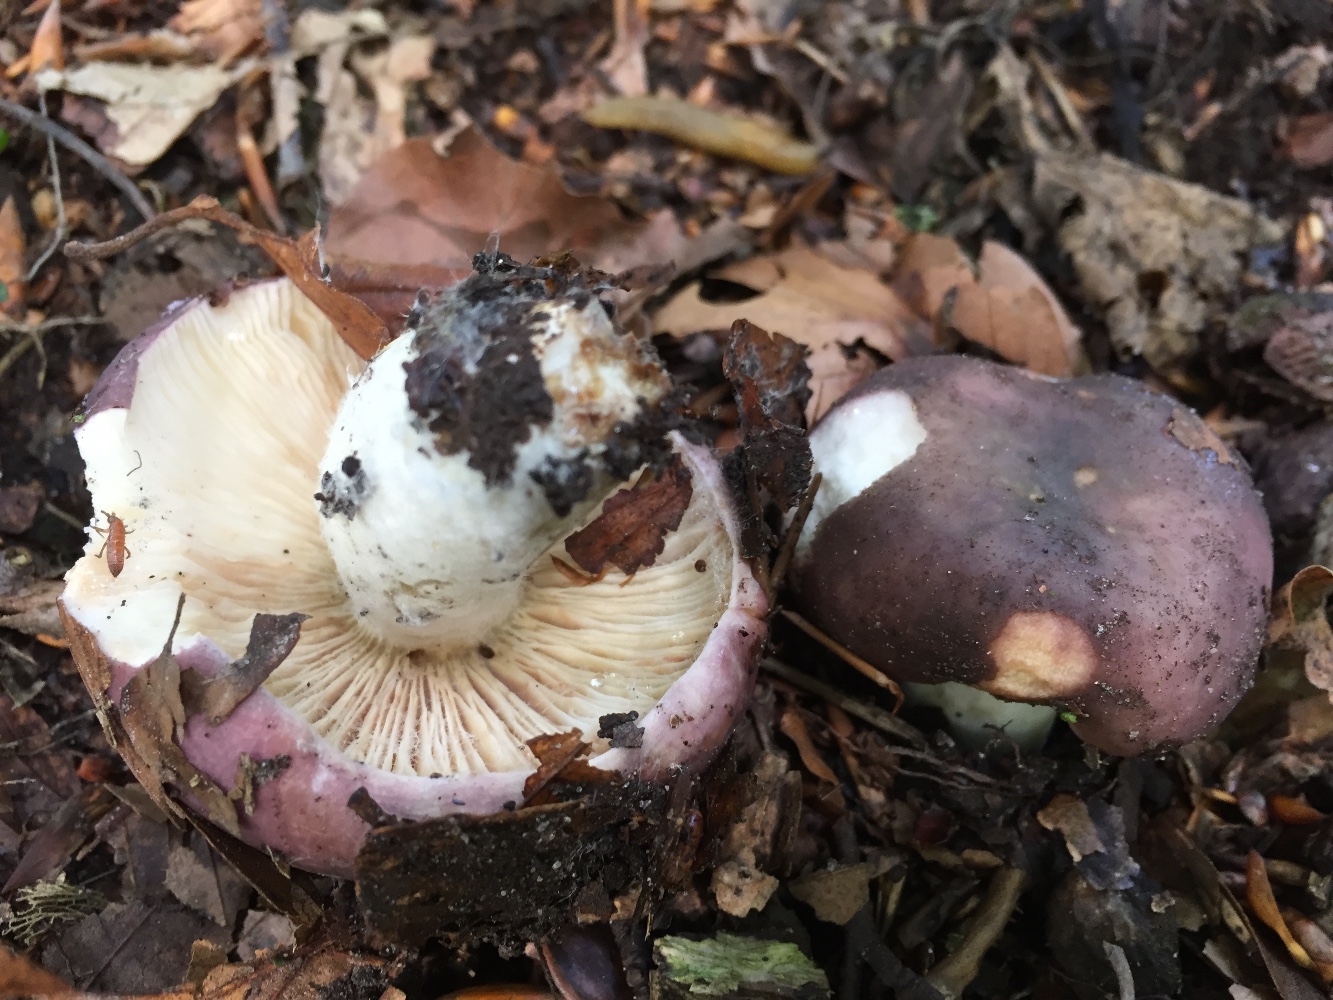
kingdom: Fungi
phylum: Basidiomycota
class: Agaricomycetes
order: Russulales
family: Russulaceae
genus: Russula
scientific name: Russula cyanoxantha
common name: broget skørhat
